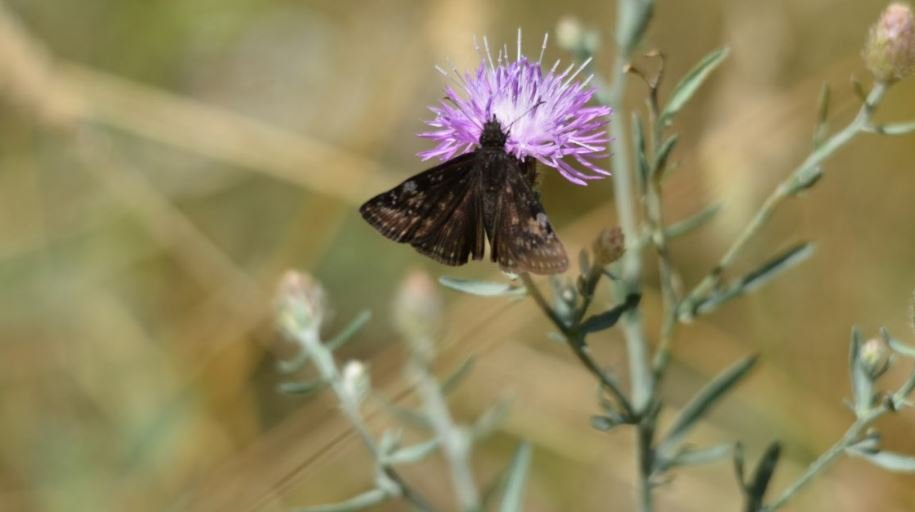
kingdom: Animalia
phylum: Arthropoda
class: Insecta
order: Lepidoptera
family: Hesperiidae
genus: Gesta
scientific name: Gesta
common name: Wild Indigo Duskywing
